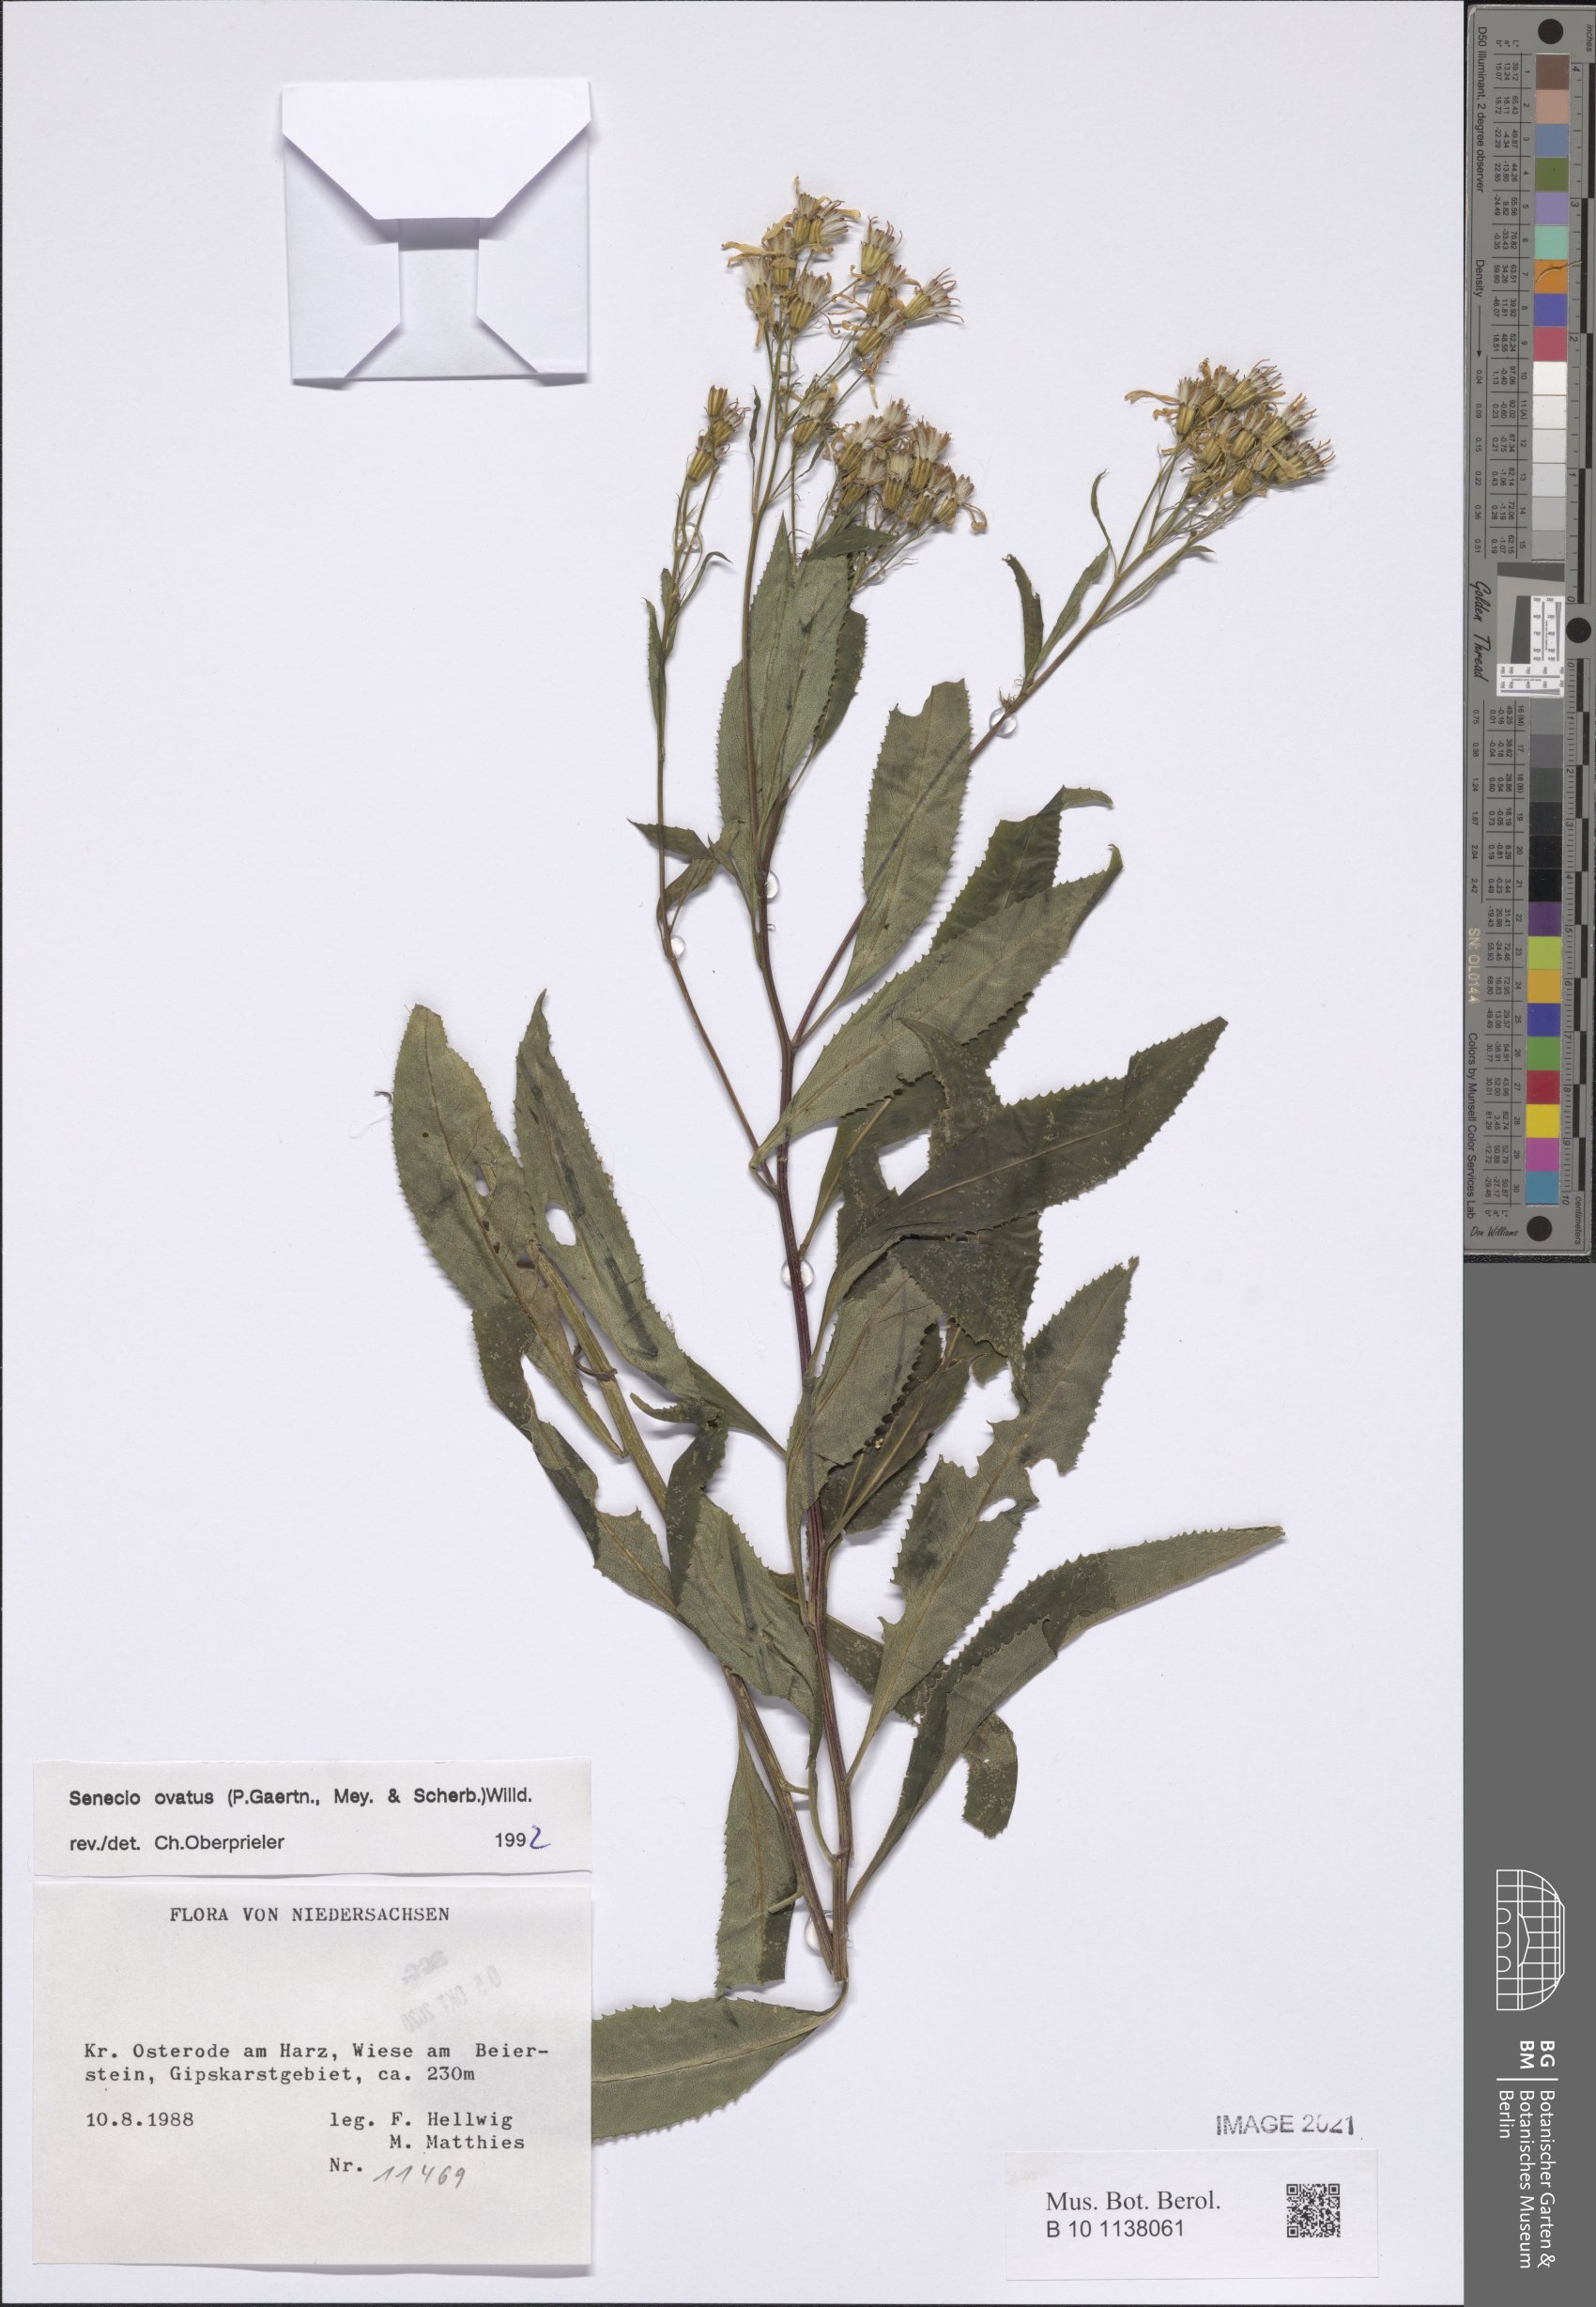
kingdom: Plantae
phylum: Tracheophyta
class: Magnoliopsida
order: Asterales
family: Asteraceae
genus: Senecio
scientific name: Senecio ovatus
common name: Wood ragwort
